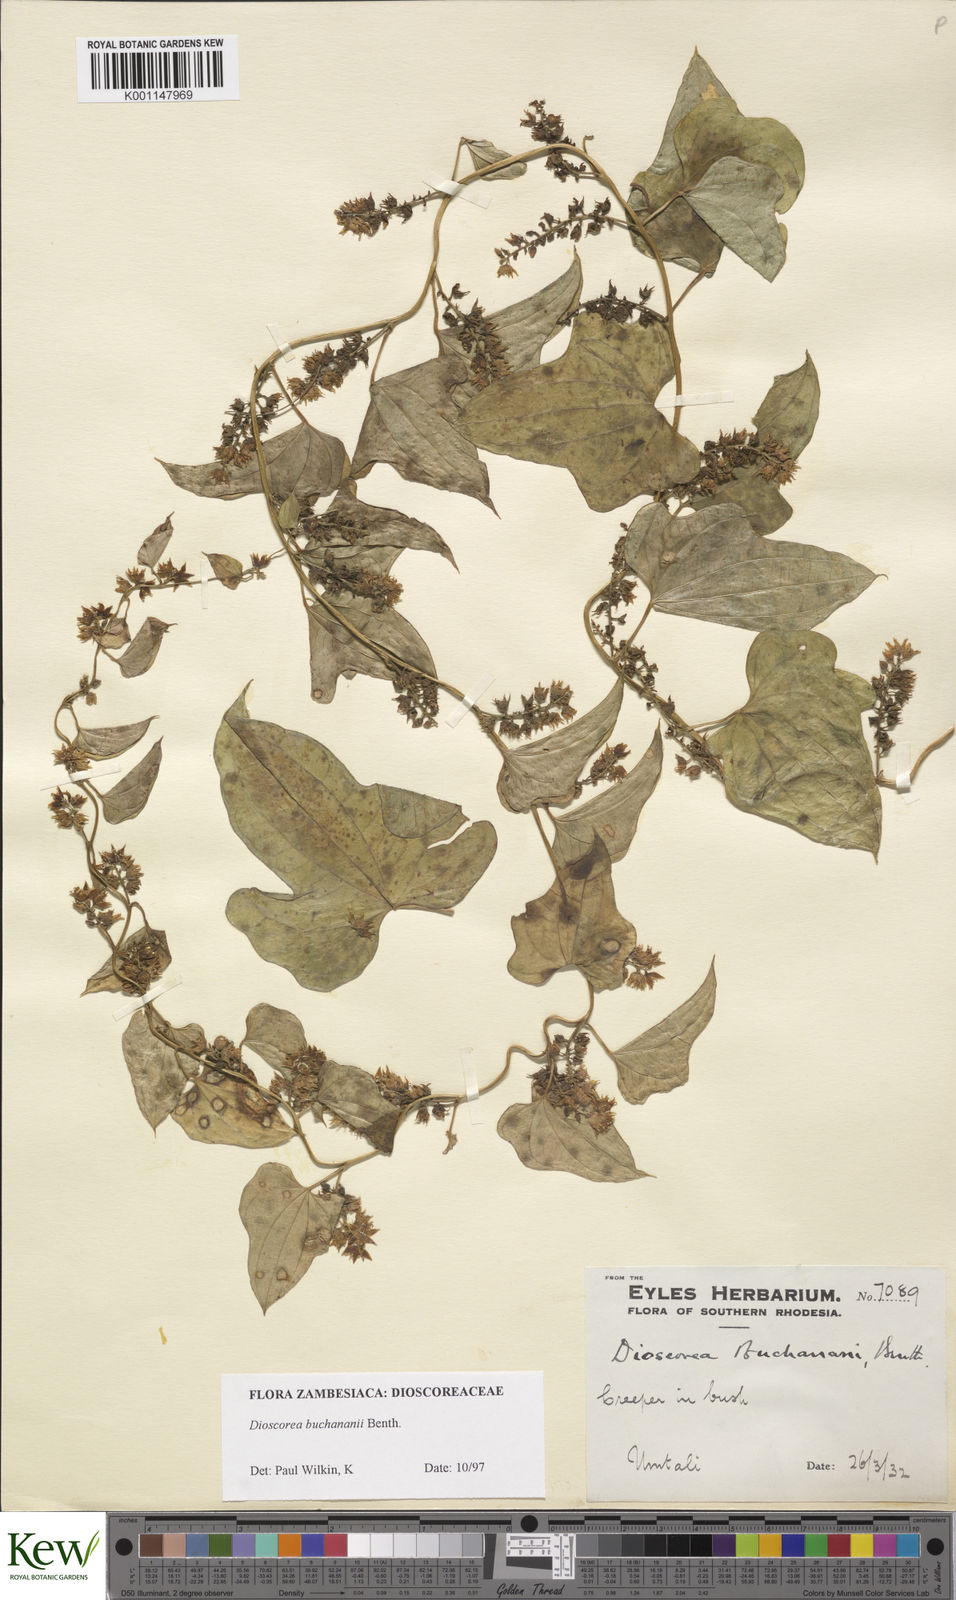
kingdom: Plantae
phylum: Tracheophyta
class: Liliopsida
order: Dioscoreales
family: Dioscoreaceae
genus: Dioscorea
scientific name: Dioscorea buchananii
